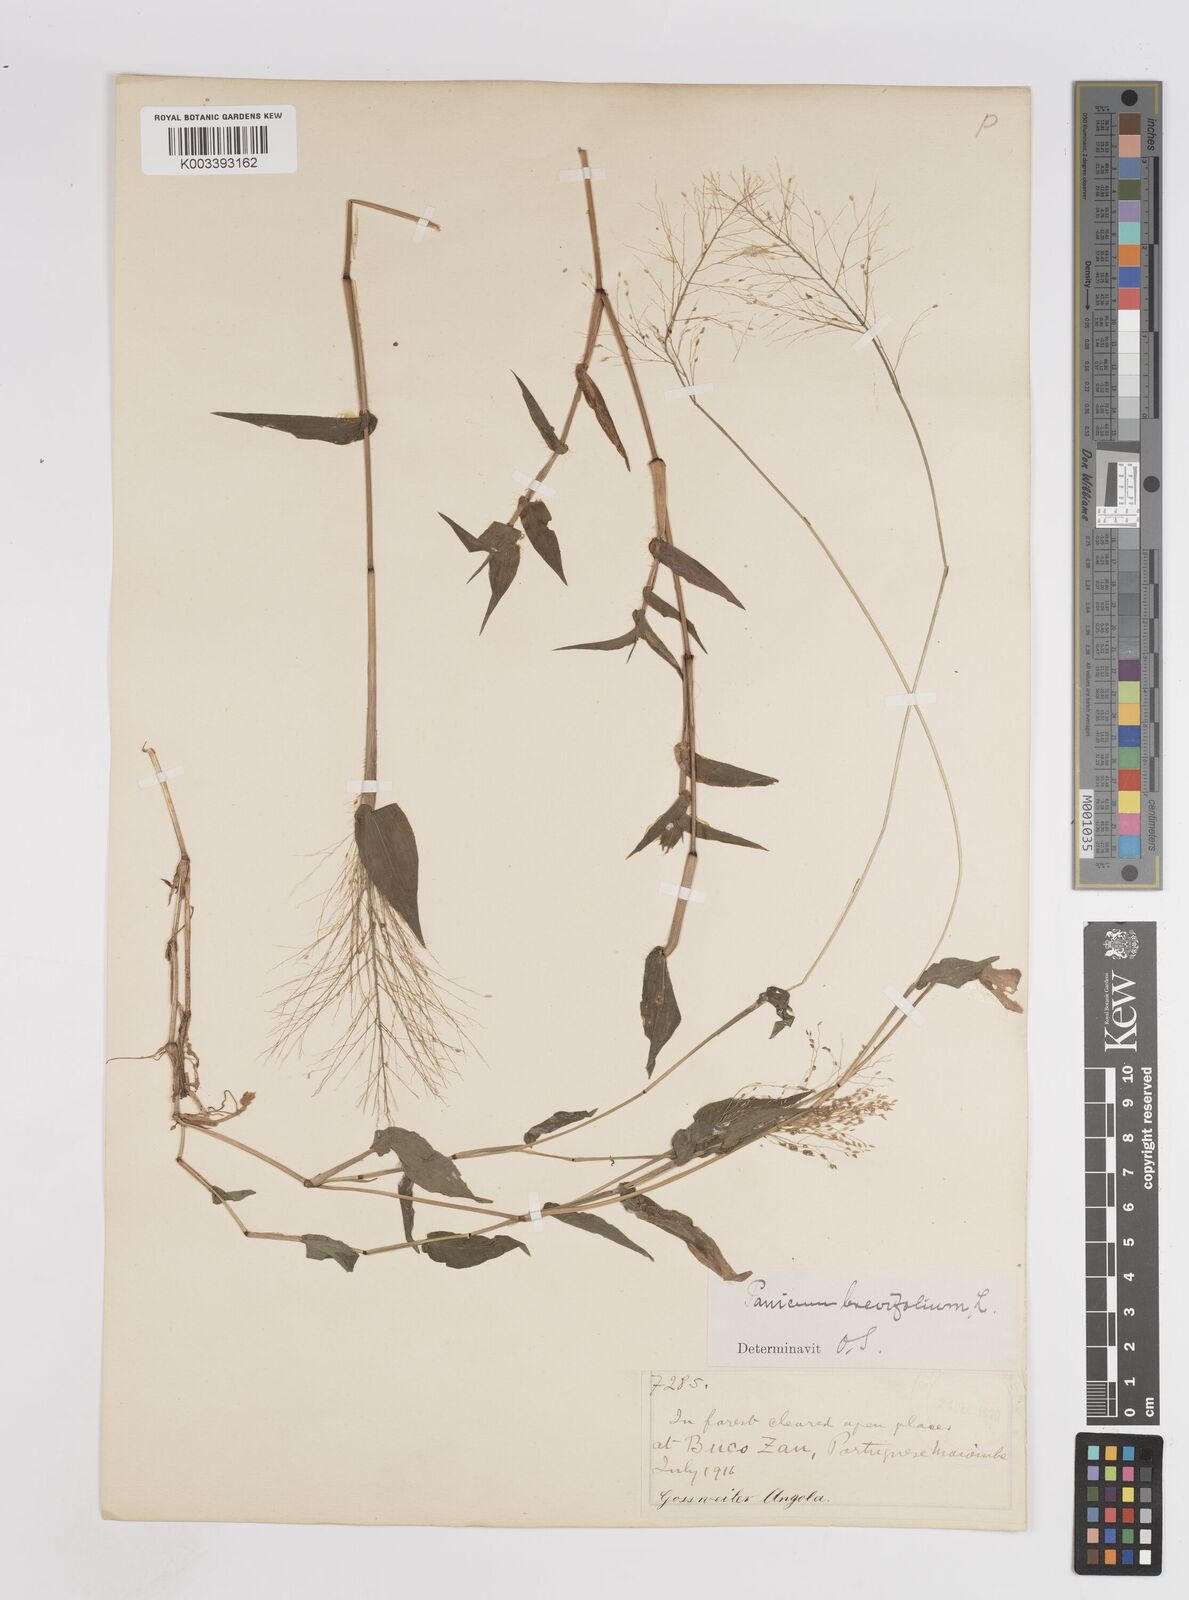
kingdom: Plantae
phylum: Tracheophyta
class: Liliopsida
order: Poales
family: Poaceae
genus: Panicum
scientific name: Panicum brevifolium
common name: Shortleaf panic grass
